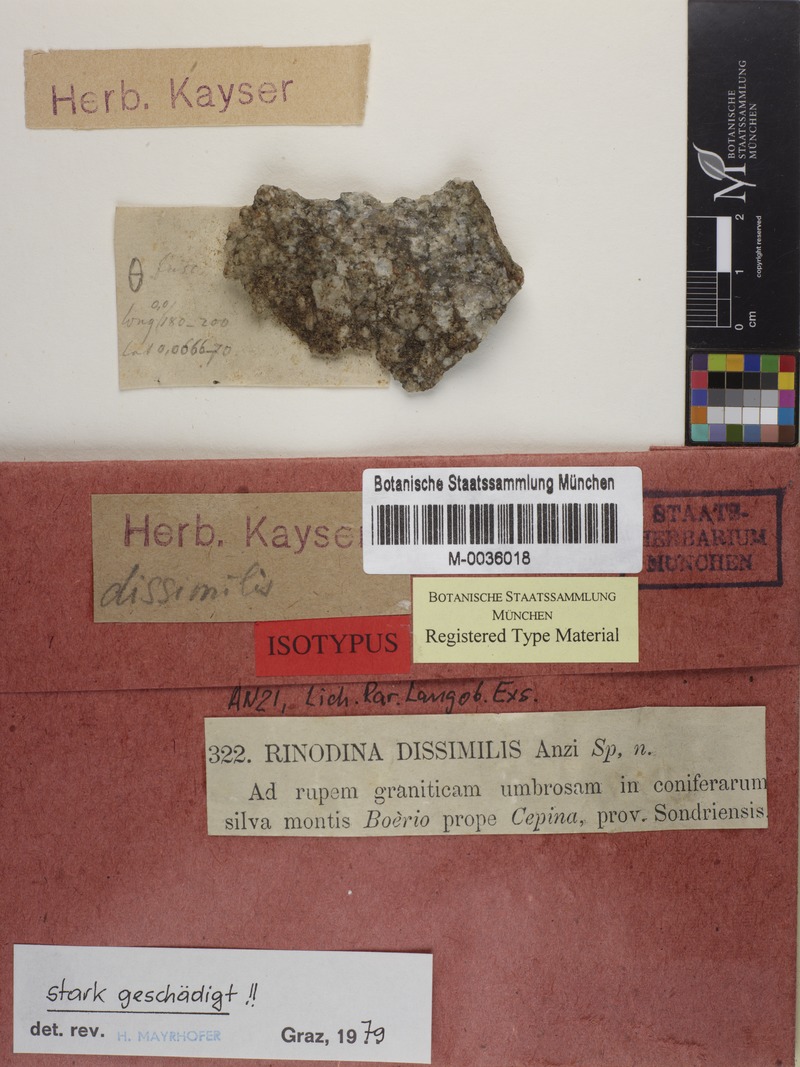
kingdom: Fungi
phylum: Ascomycota
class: Lecanoromycetes
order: Caliciales
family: Physciaceae
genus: Mischoblastia
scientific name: Mischoblastia oxydata
